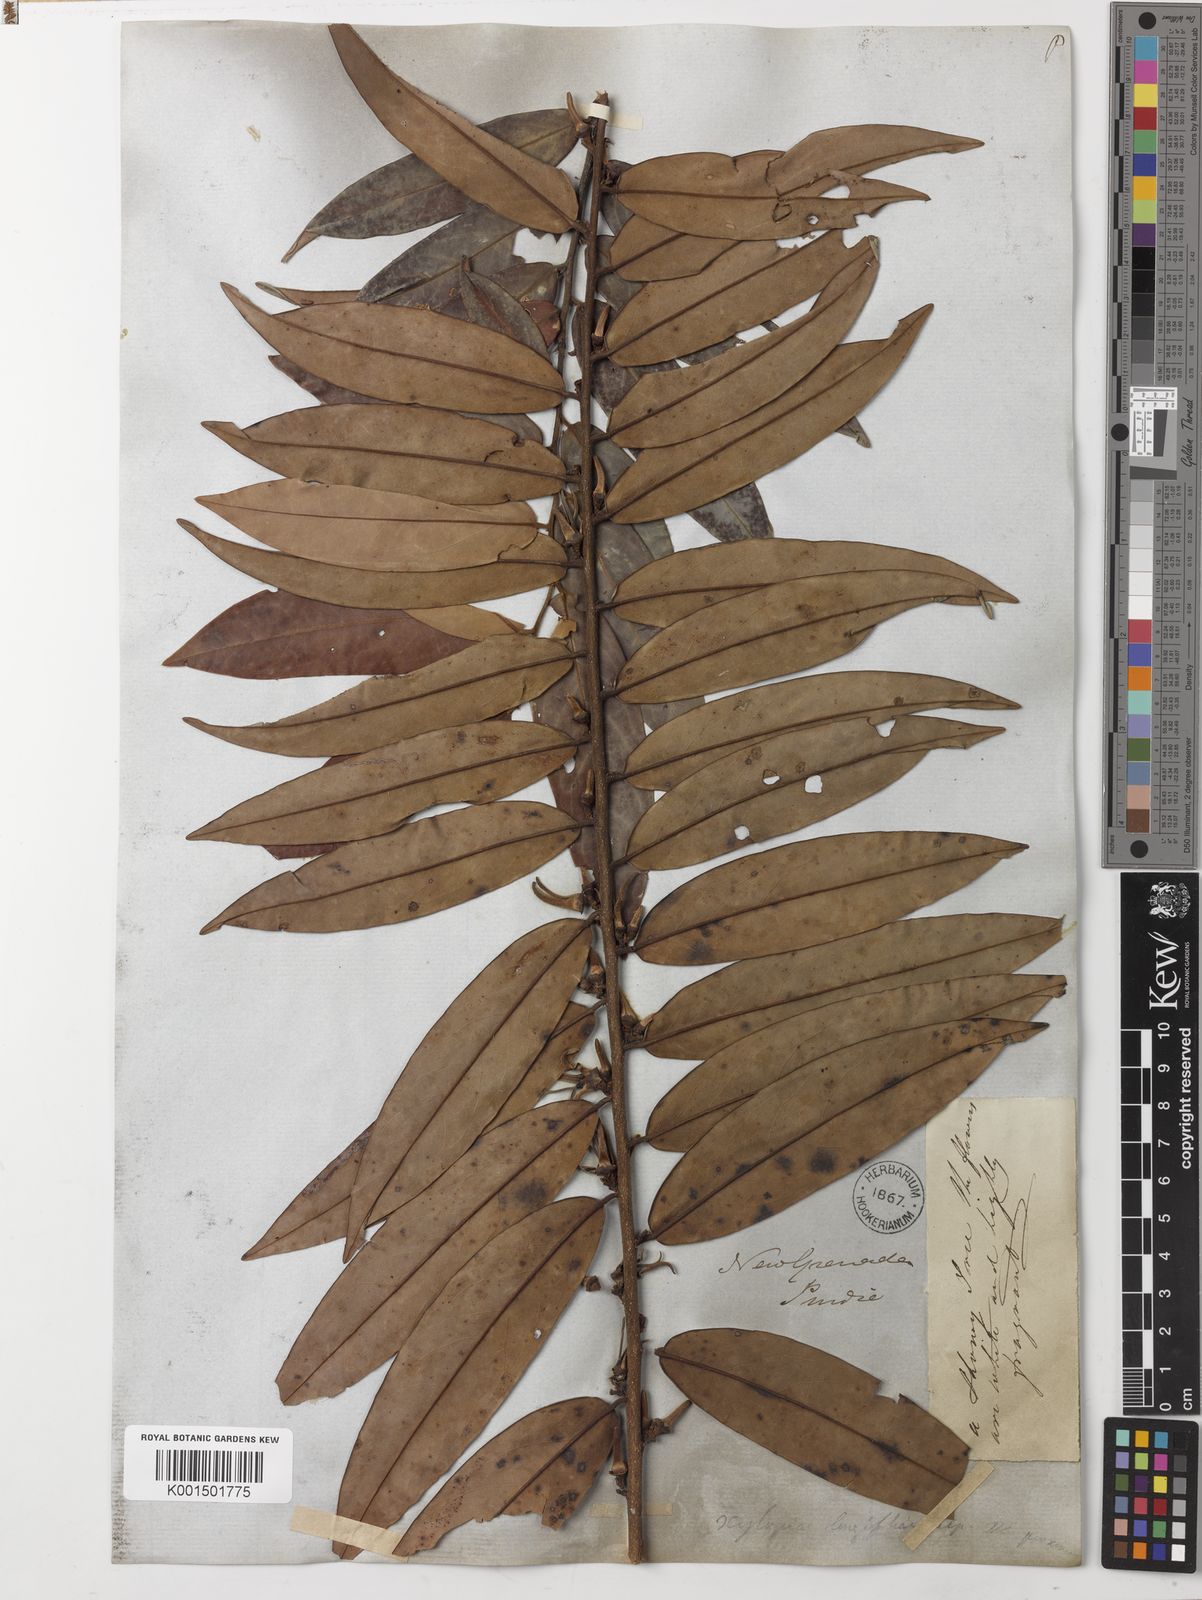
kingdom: Plantae
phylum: Tracheophyta
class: Magnoliopsida
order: Magnoliales
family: Annonaceae
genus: Xylopia
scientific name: Xylopia aromatica
